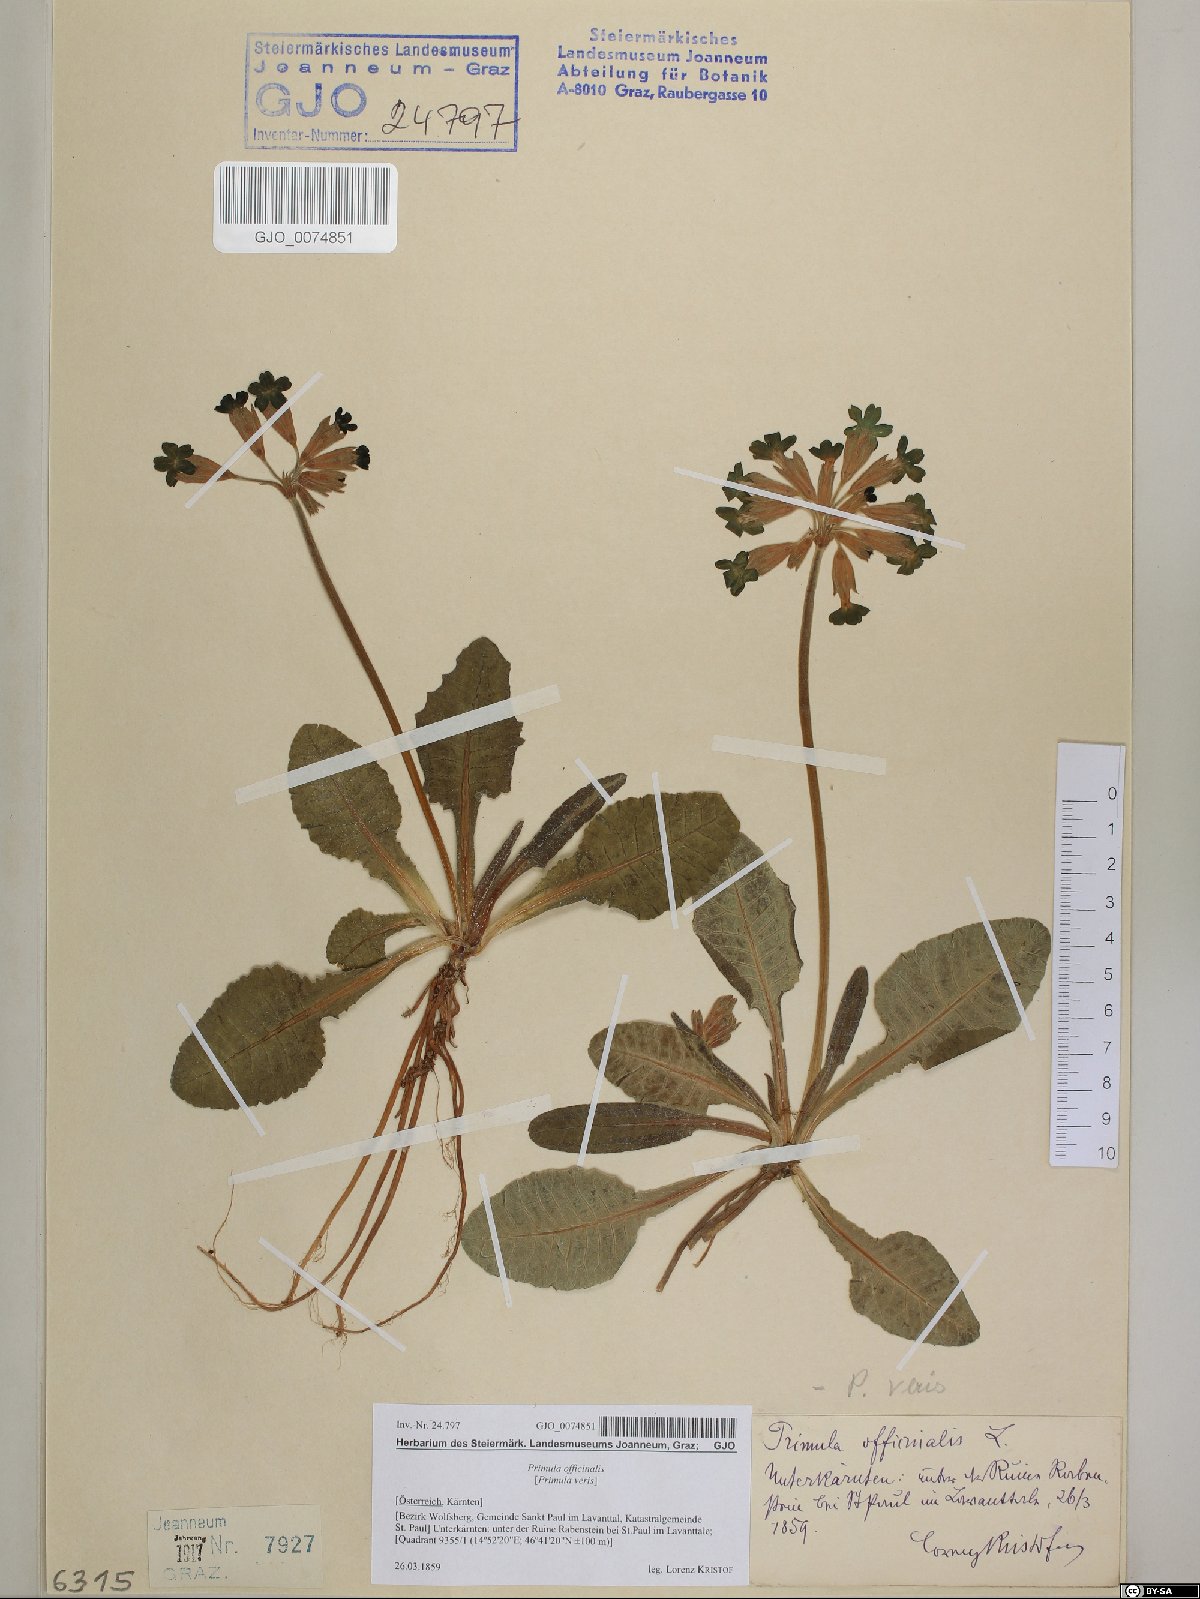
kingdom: Plantae
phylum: Tracheophyta
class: Magnoliopsida
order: Ericales
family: Primulaceae
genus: Primula
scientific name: Primula veris
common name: Cowslip
